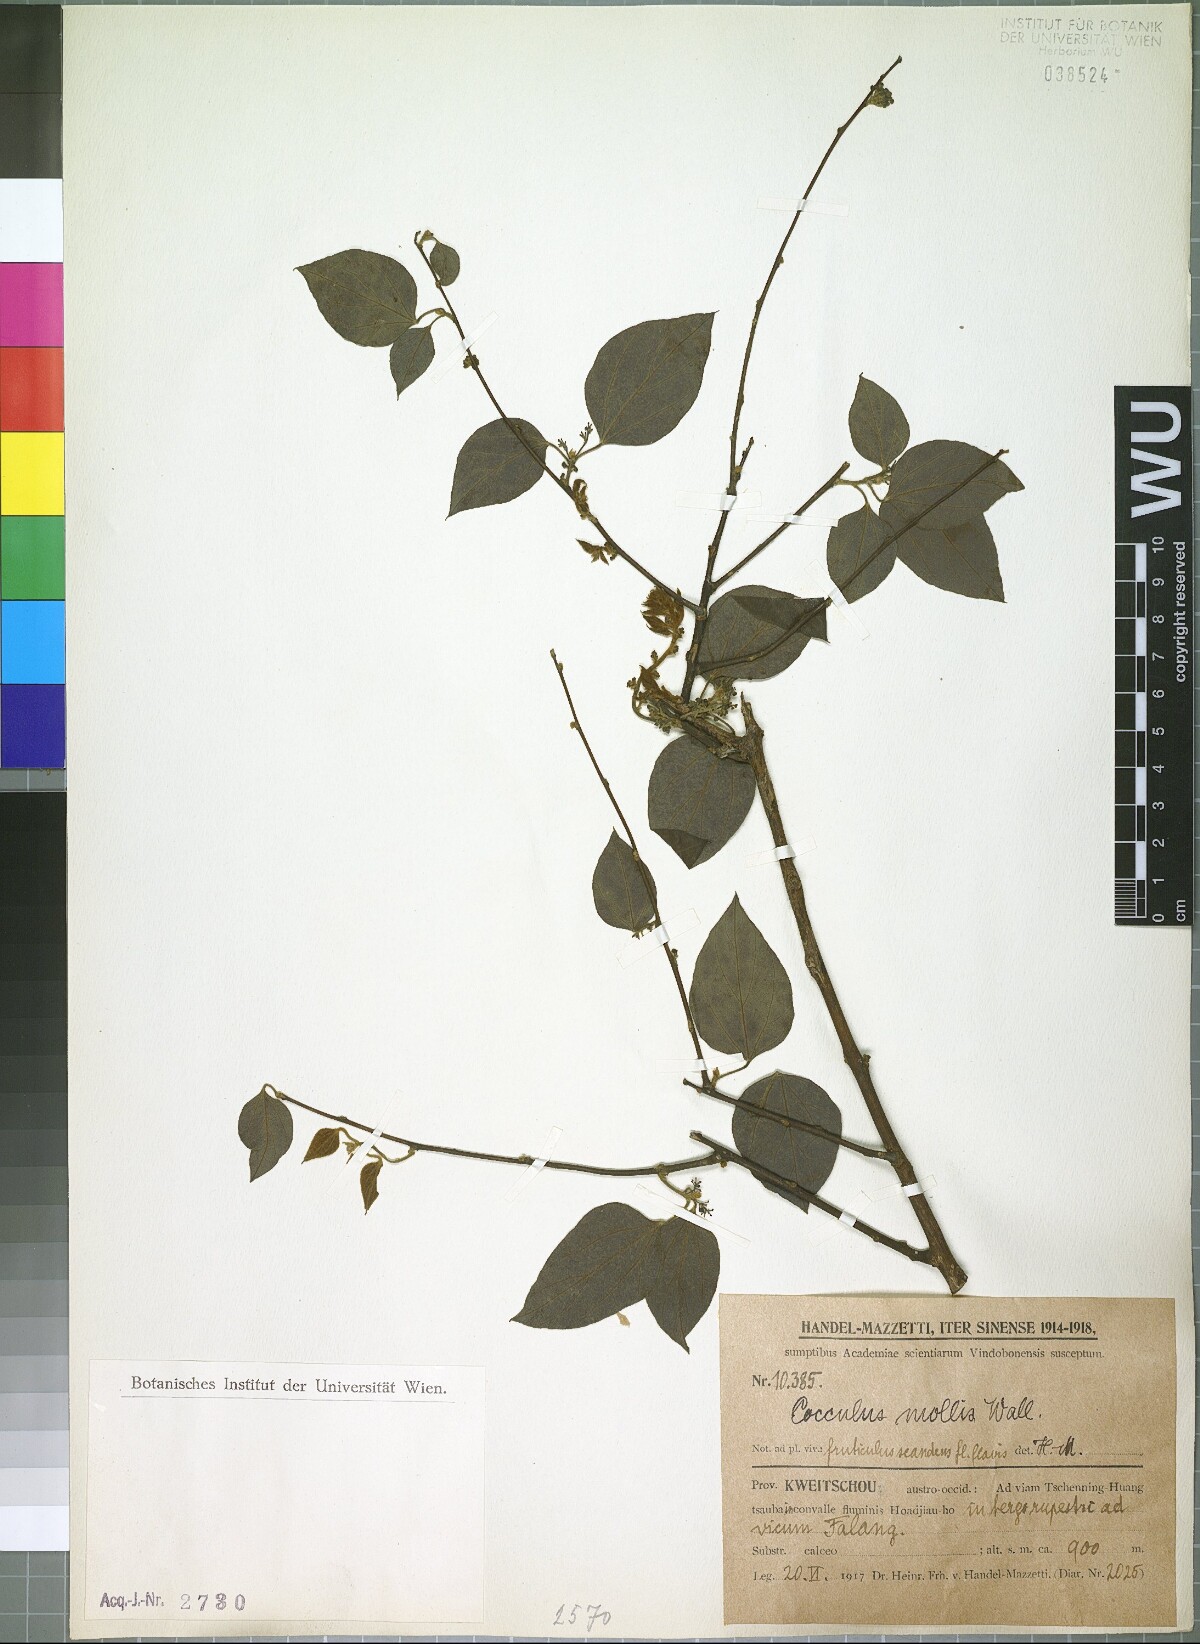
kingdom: Plantae
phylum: Tracheophyta
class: Magnoliopsida
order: Ranunculales
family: Menispermaceae
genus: Cocculus
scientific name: Cocculus orbiculatus
